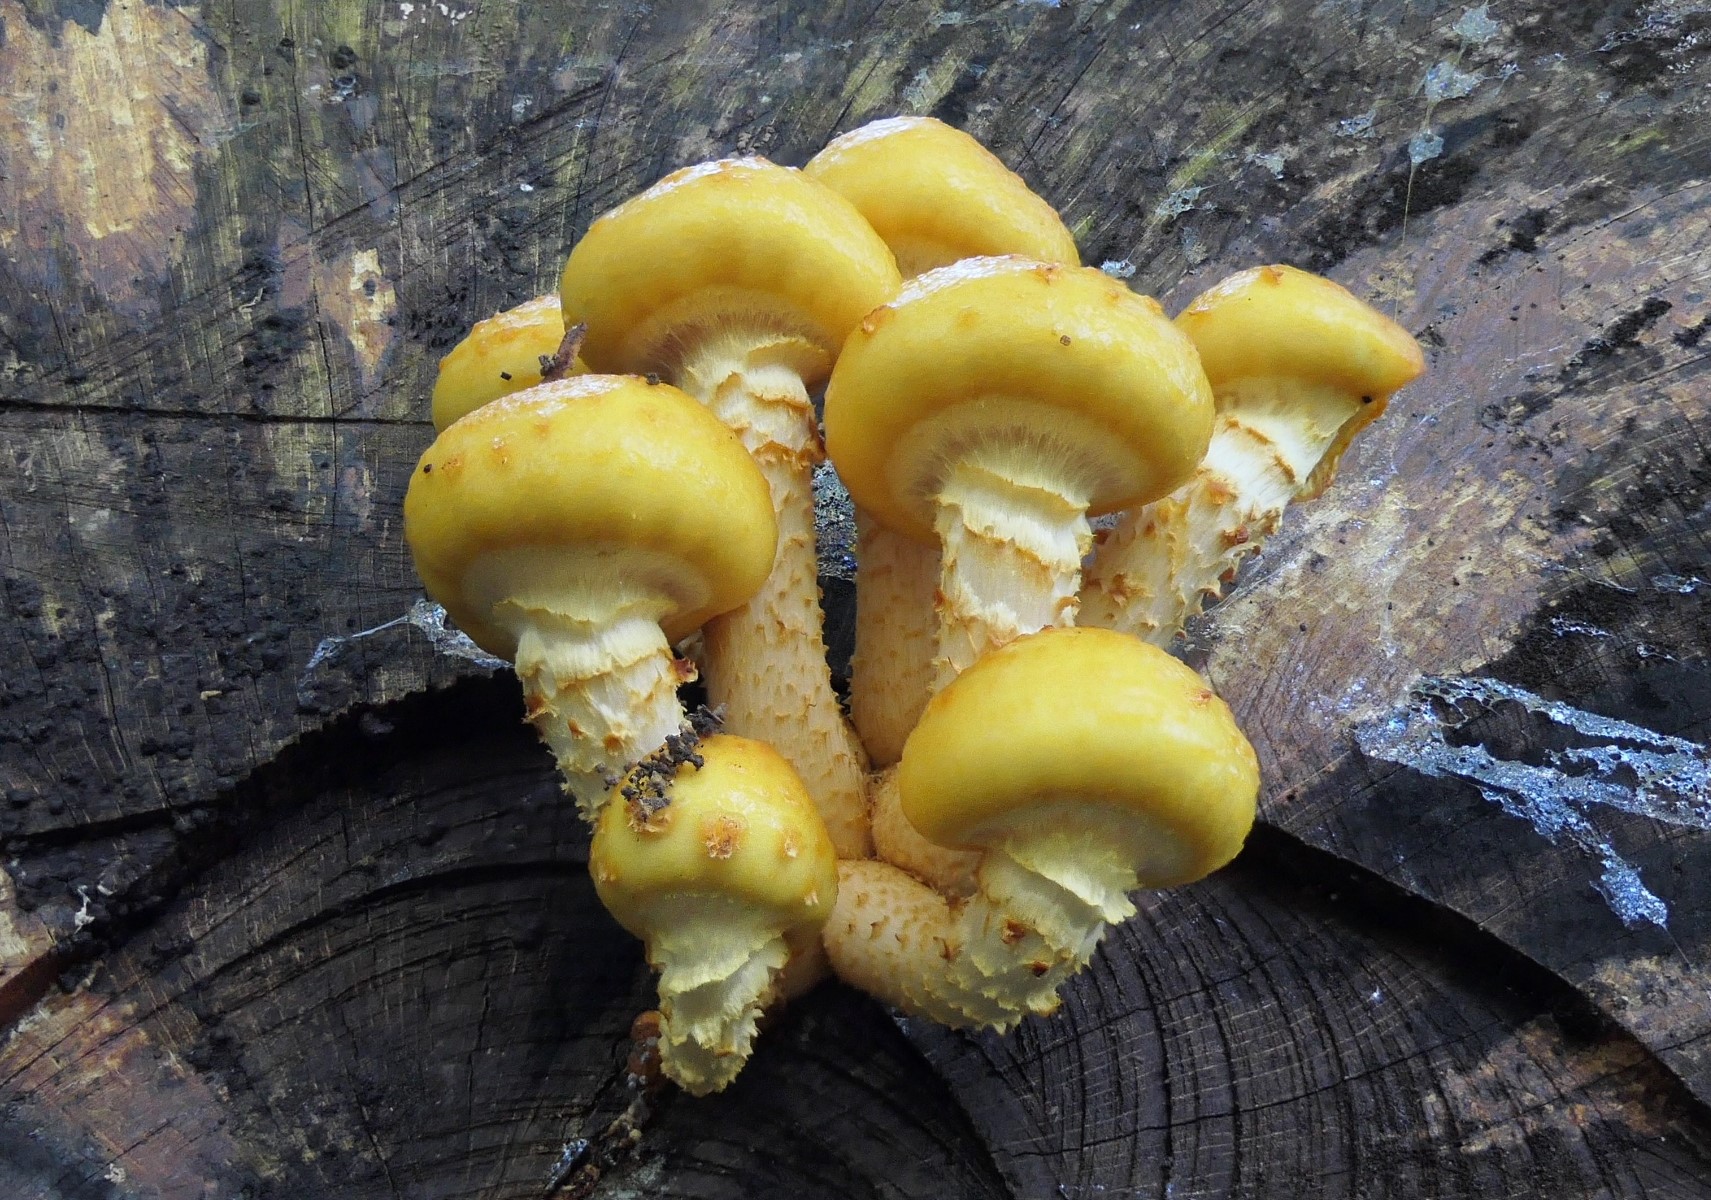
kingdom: Fungi
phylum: Basidiomycota
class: Agaricomycetes
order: Agaricales
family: Strophariaceae
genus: Pholiota
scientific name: Pholiota adiposa
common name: højtsiddende skælhat
